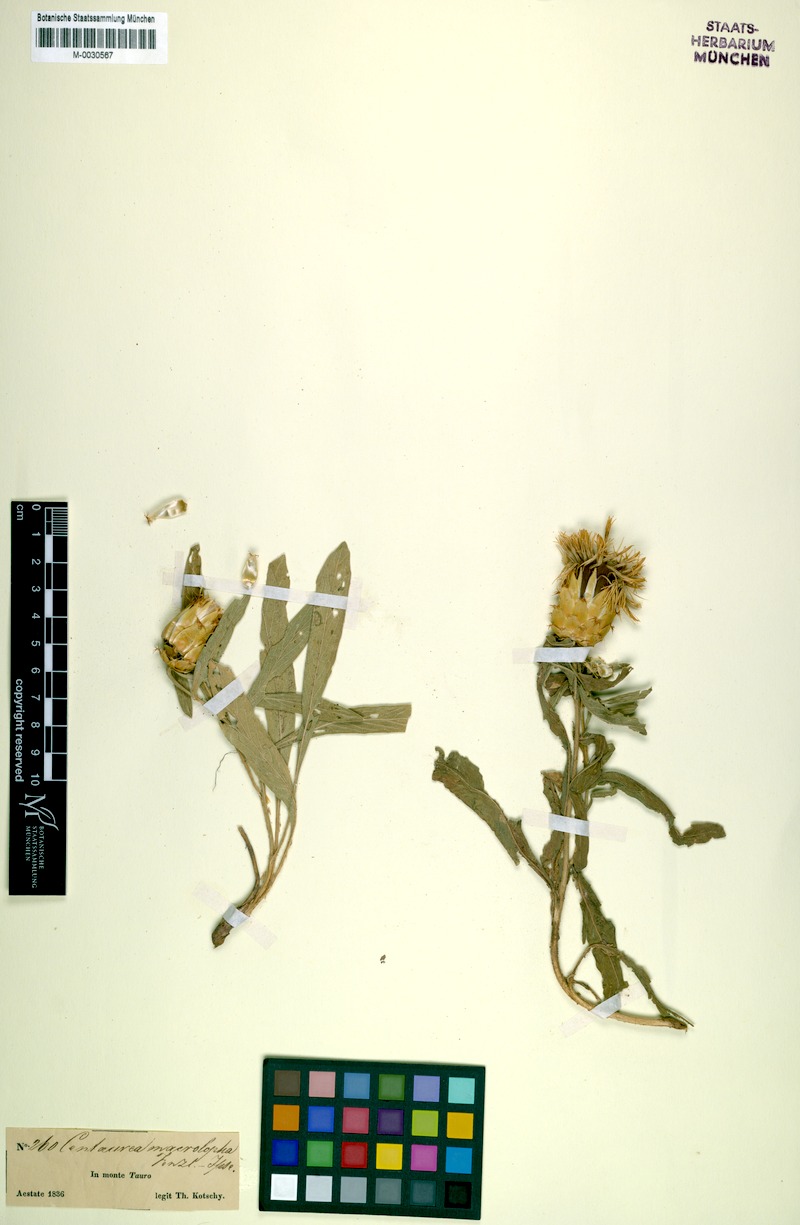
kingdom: Plantae
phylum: Tracheophyta
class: Magnoliopsida
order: Asterales
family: Asteraceae
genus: Centaurea
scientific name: Centaurea kotschyi
